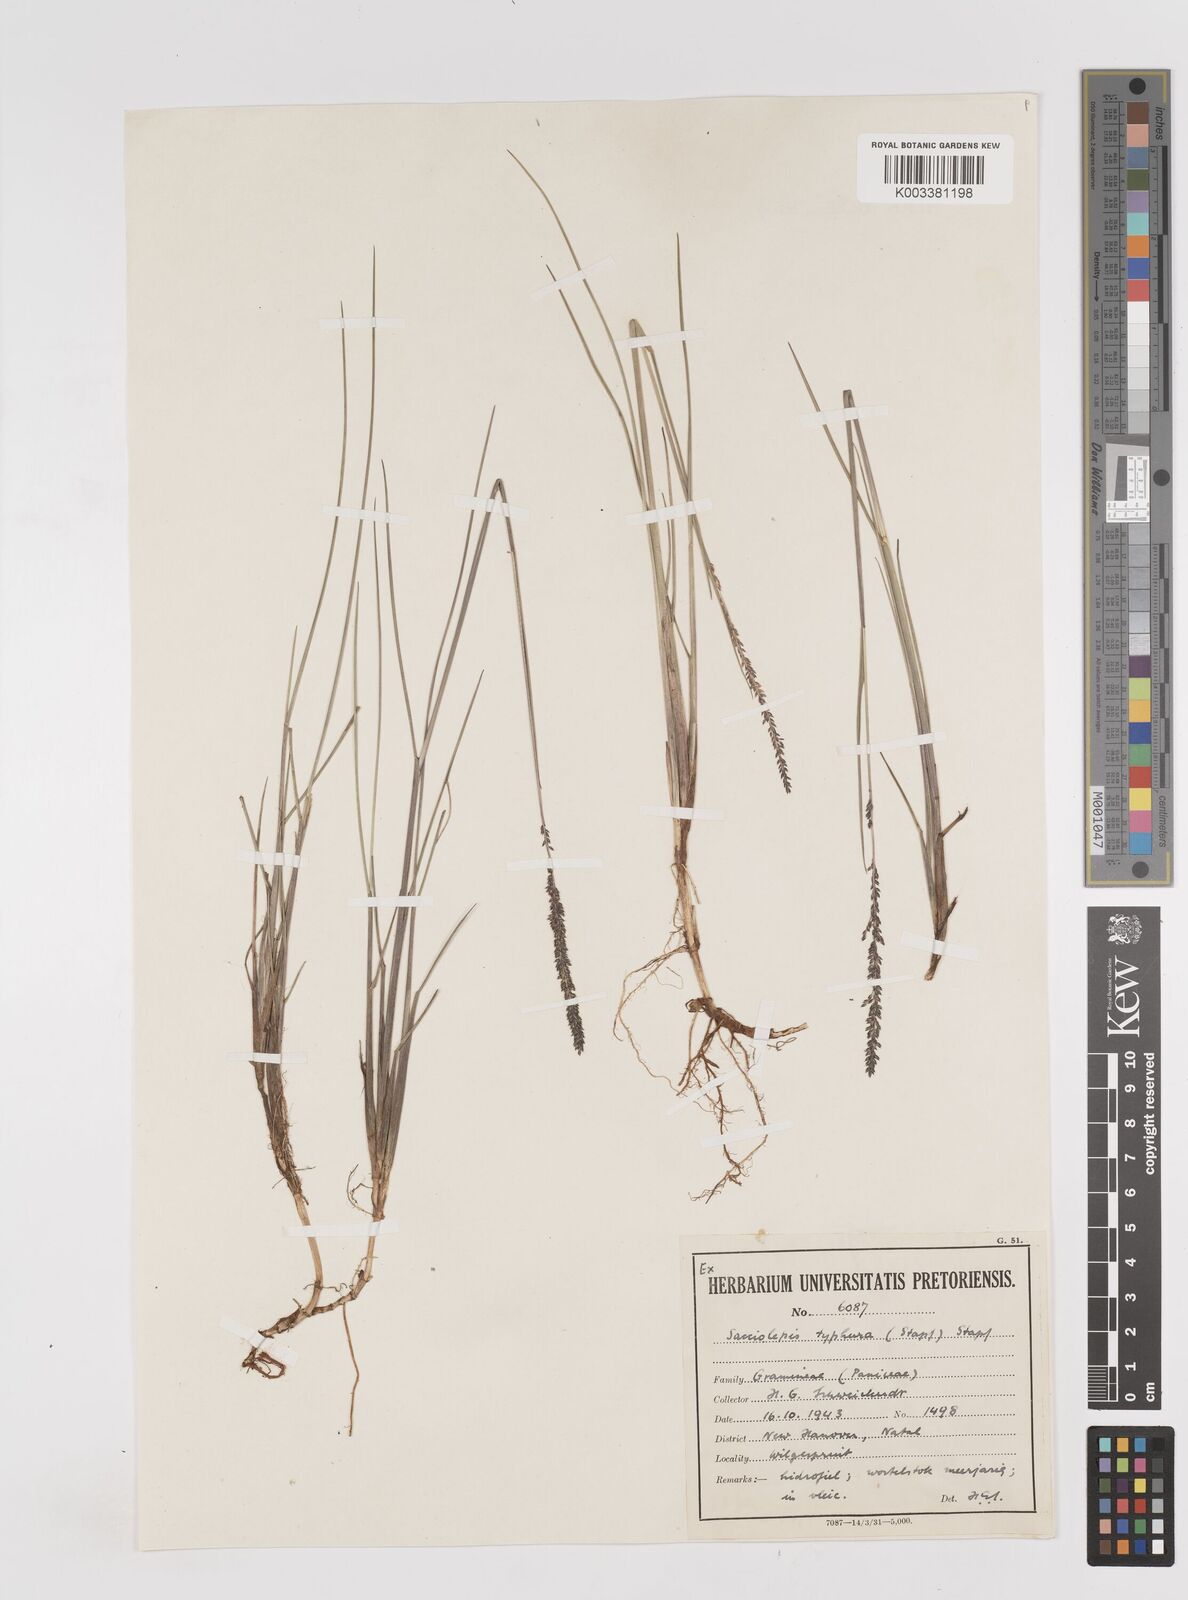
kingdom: Plantae
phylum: Tracheophyta
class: Liliopsida
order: Poales
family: Poaceae
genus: Sacciolepis
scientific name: Sacciolepis chevalieri
